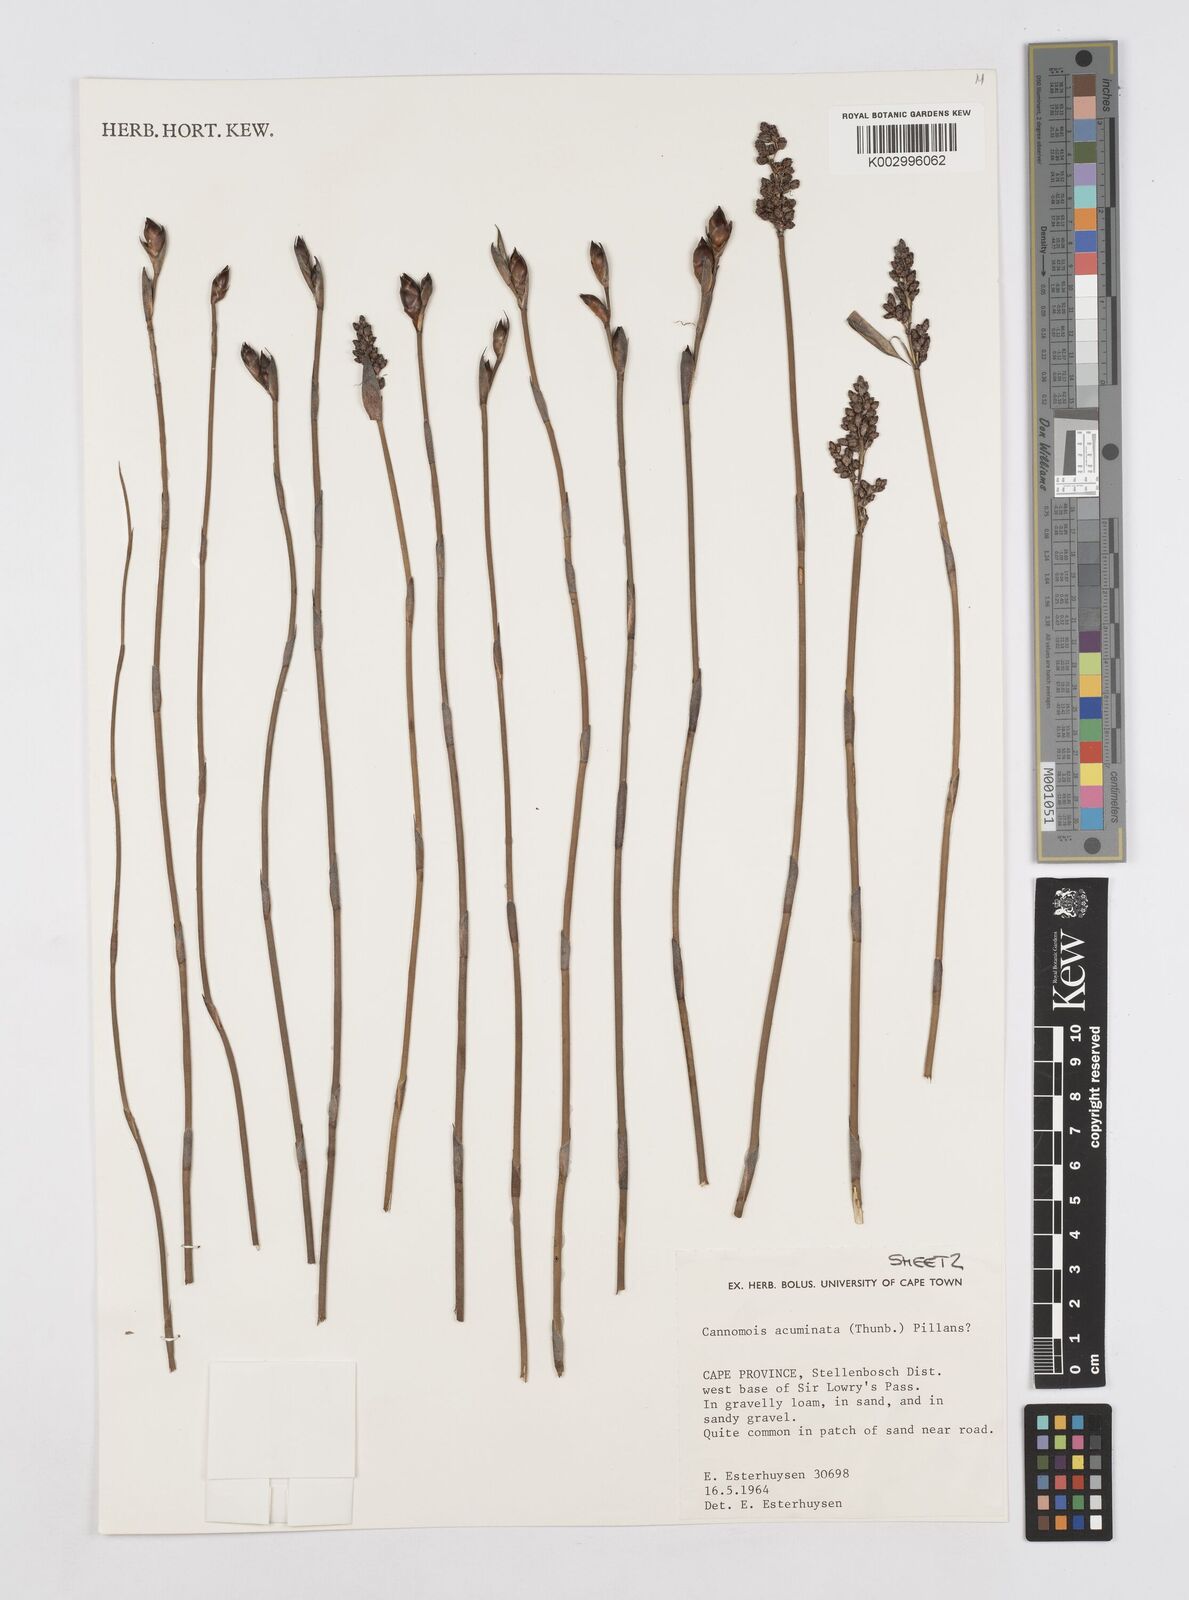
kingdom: Plantae
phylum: Tracheophyta
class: Liliopsida
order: Poales
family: Restionaceae
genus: Cannomois
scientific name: Cannomois parviflora
